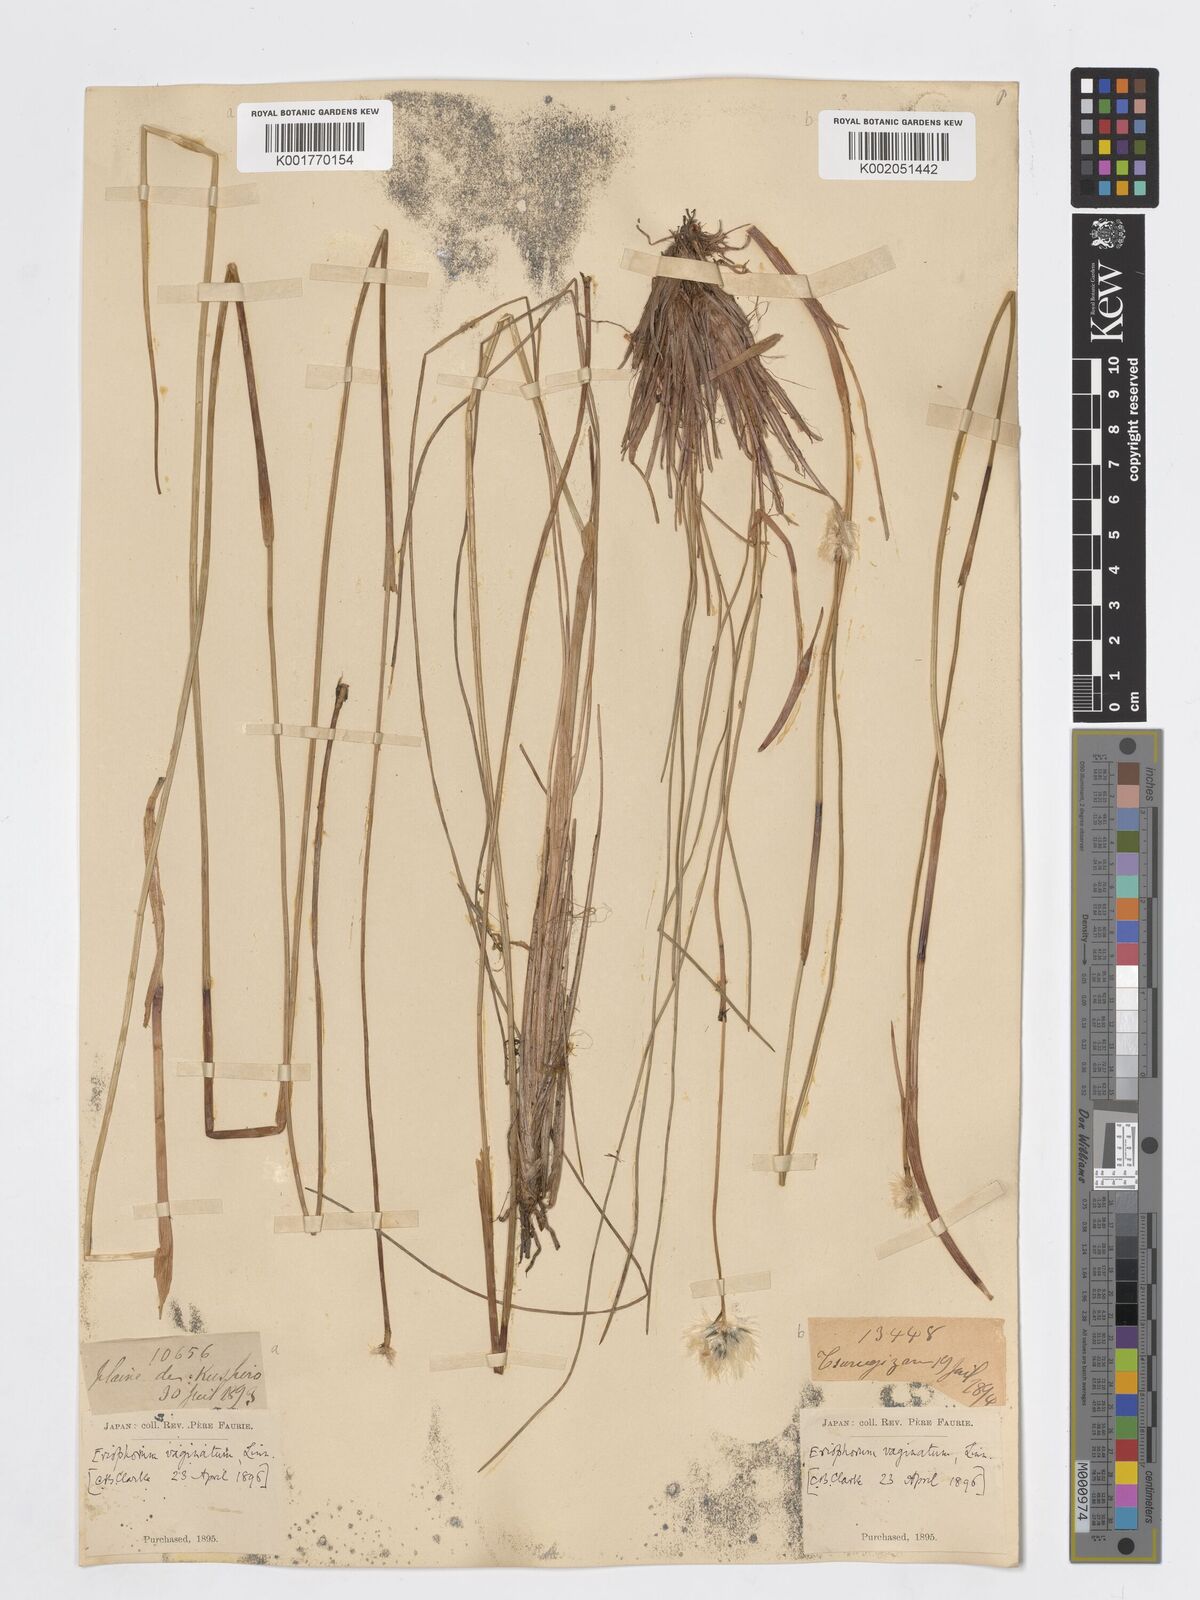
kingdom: Plantae
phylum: Tracheophyta
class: Liliopsida
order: Poales
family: Cyperaceae
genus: Eriophorum
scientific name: Eriophorum vaginatum
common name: Hare's-tail cottongrass
